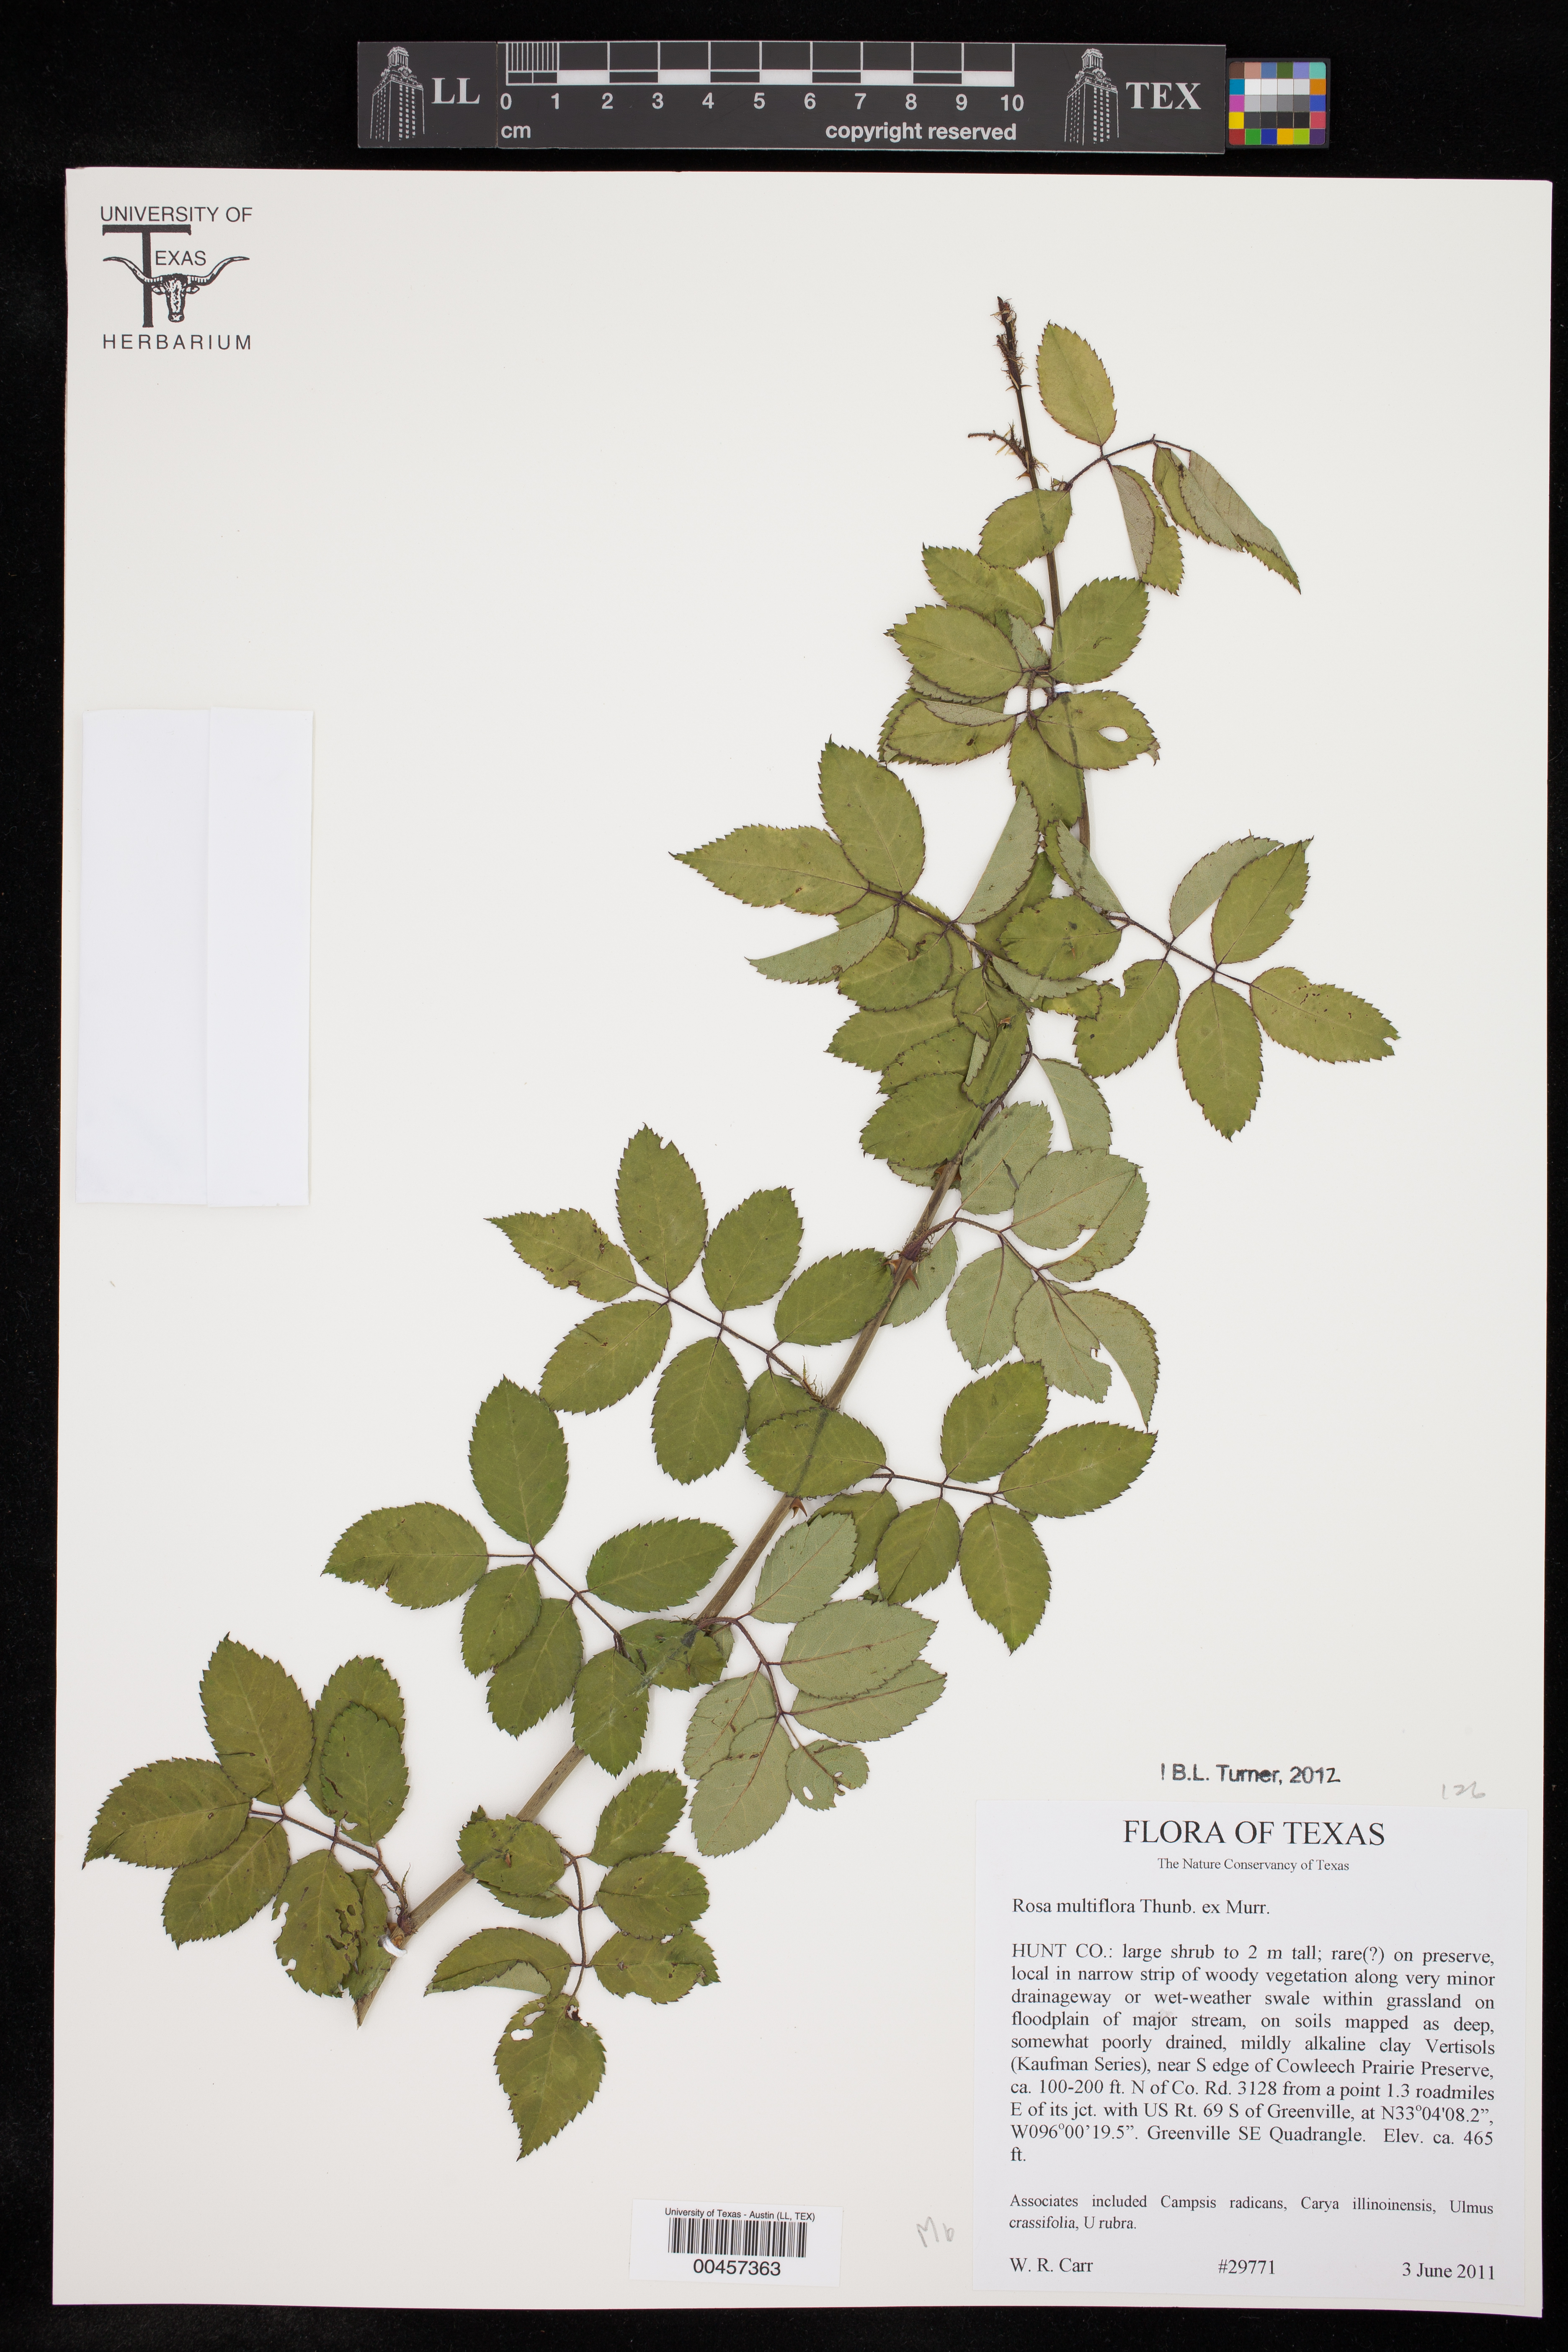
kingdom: Plantae
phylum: Tracheophyta
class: Magnoliopsida
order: Rosales
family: Rosaceae
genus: Rosa
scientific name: Rosa multiflora
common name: Multiflora rose
